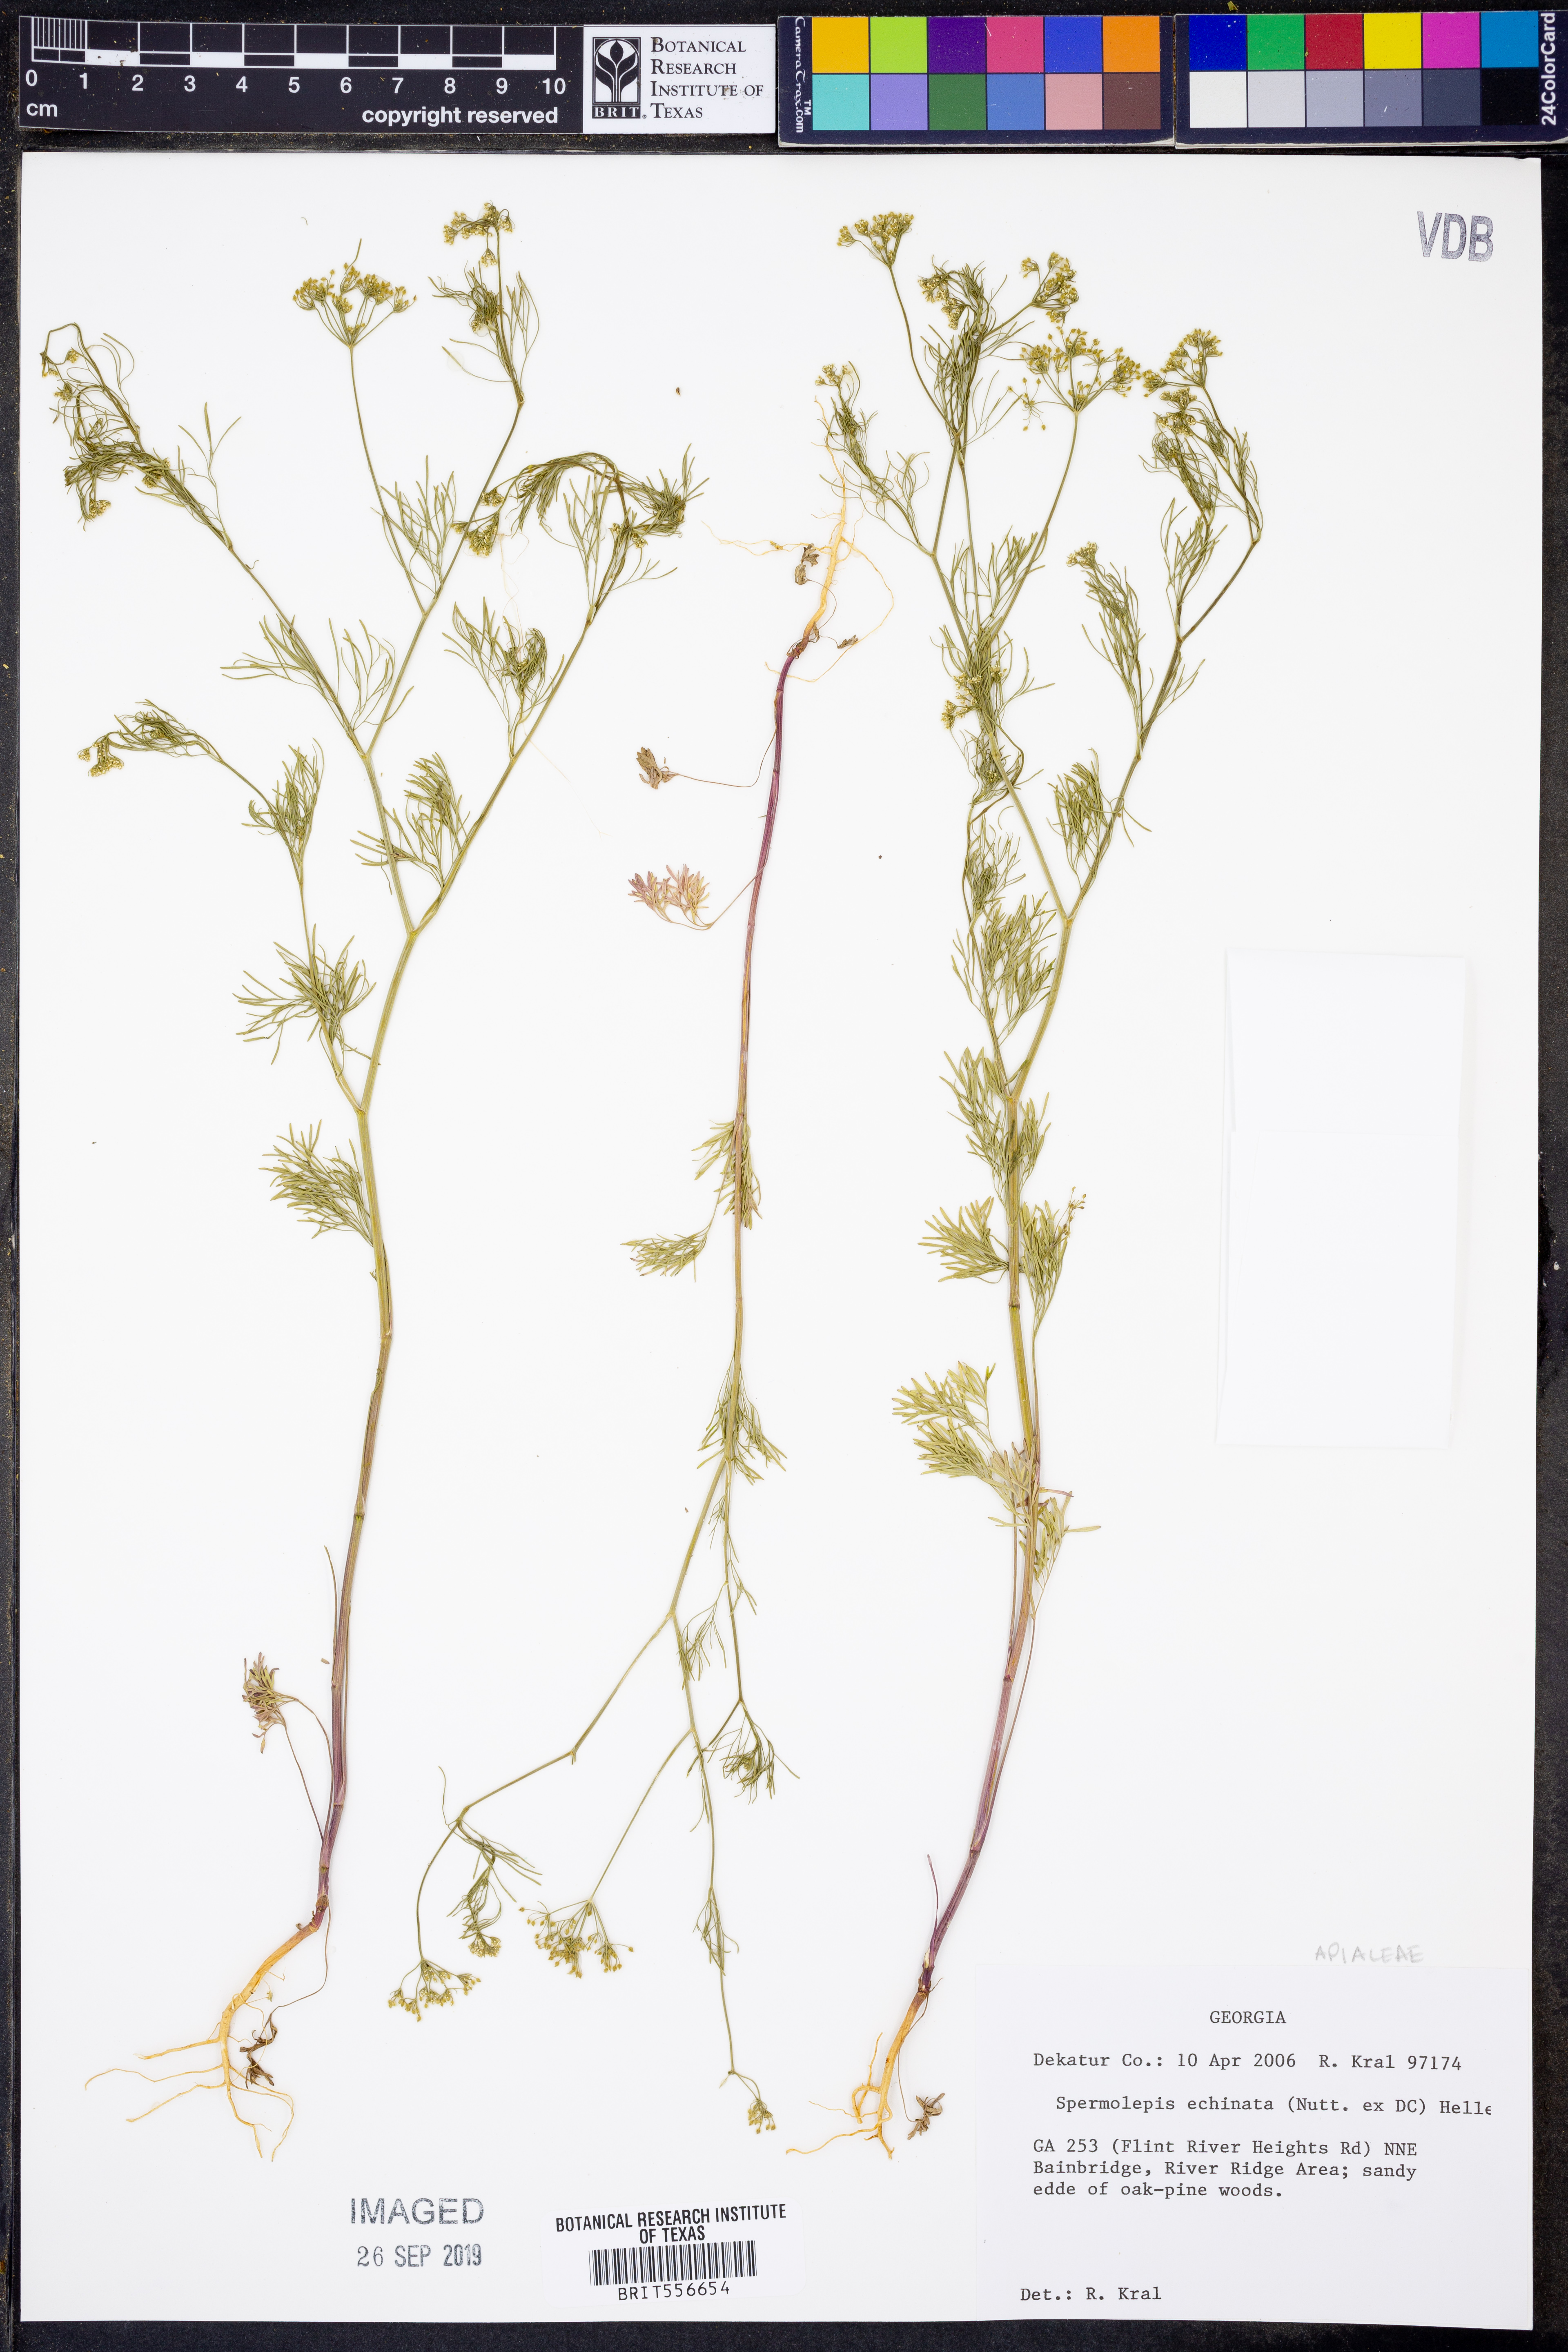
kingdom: Plantae
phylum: Tracheophyta
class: Magnoliopsida
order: Apiales
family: Apiaceae
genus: Spermolepis
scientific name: Spermolepis echinata
